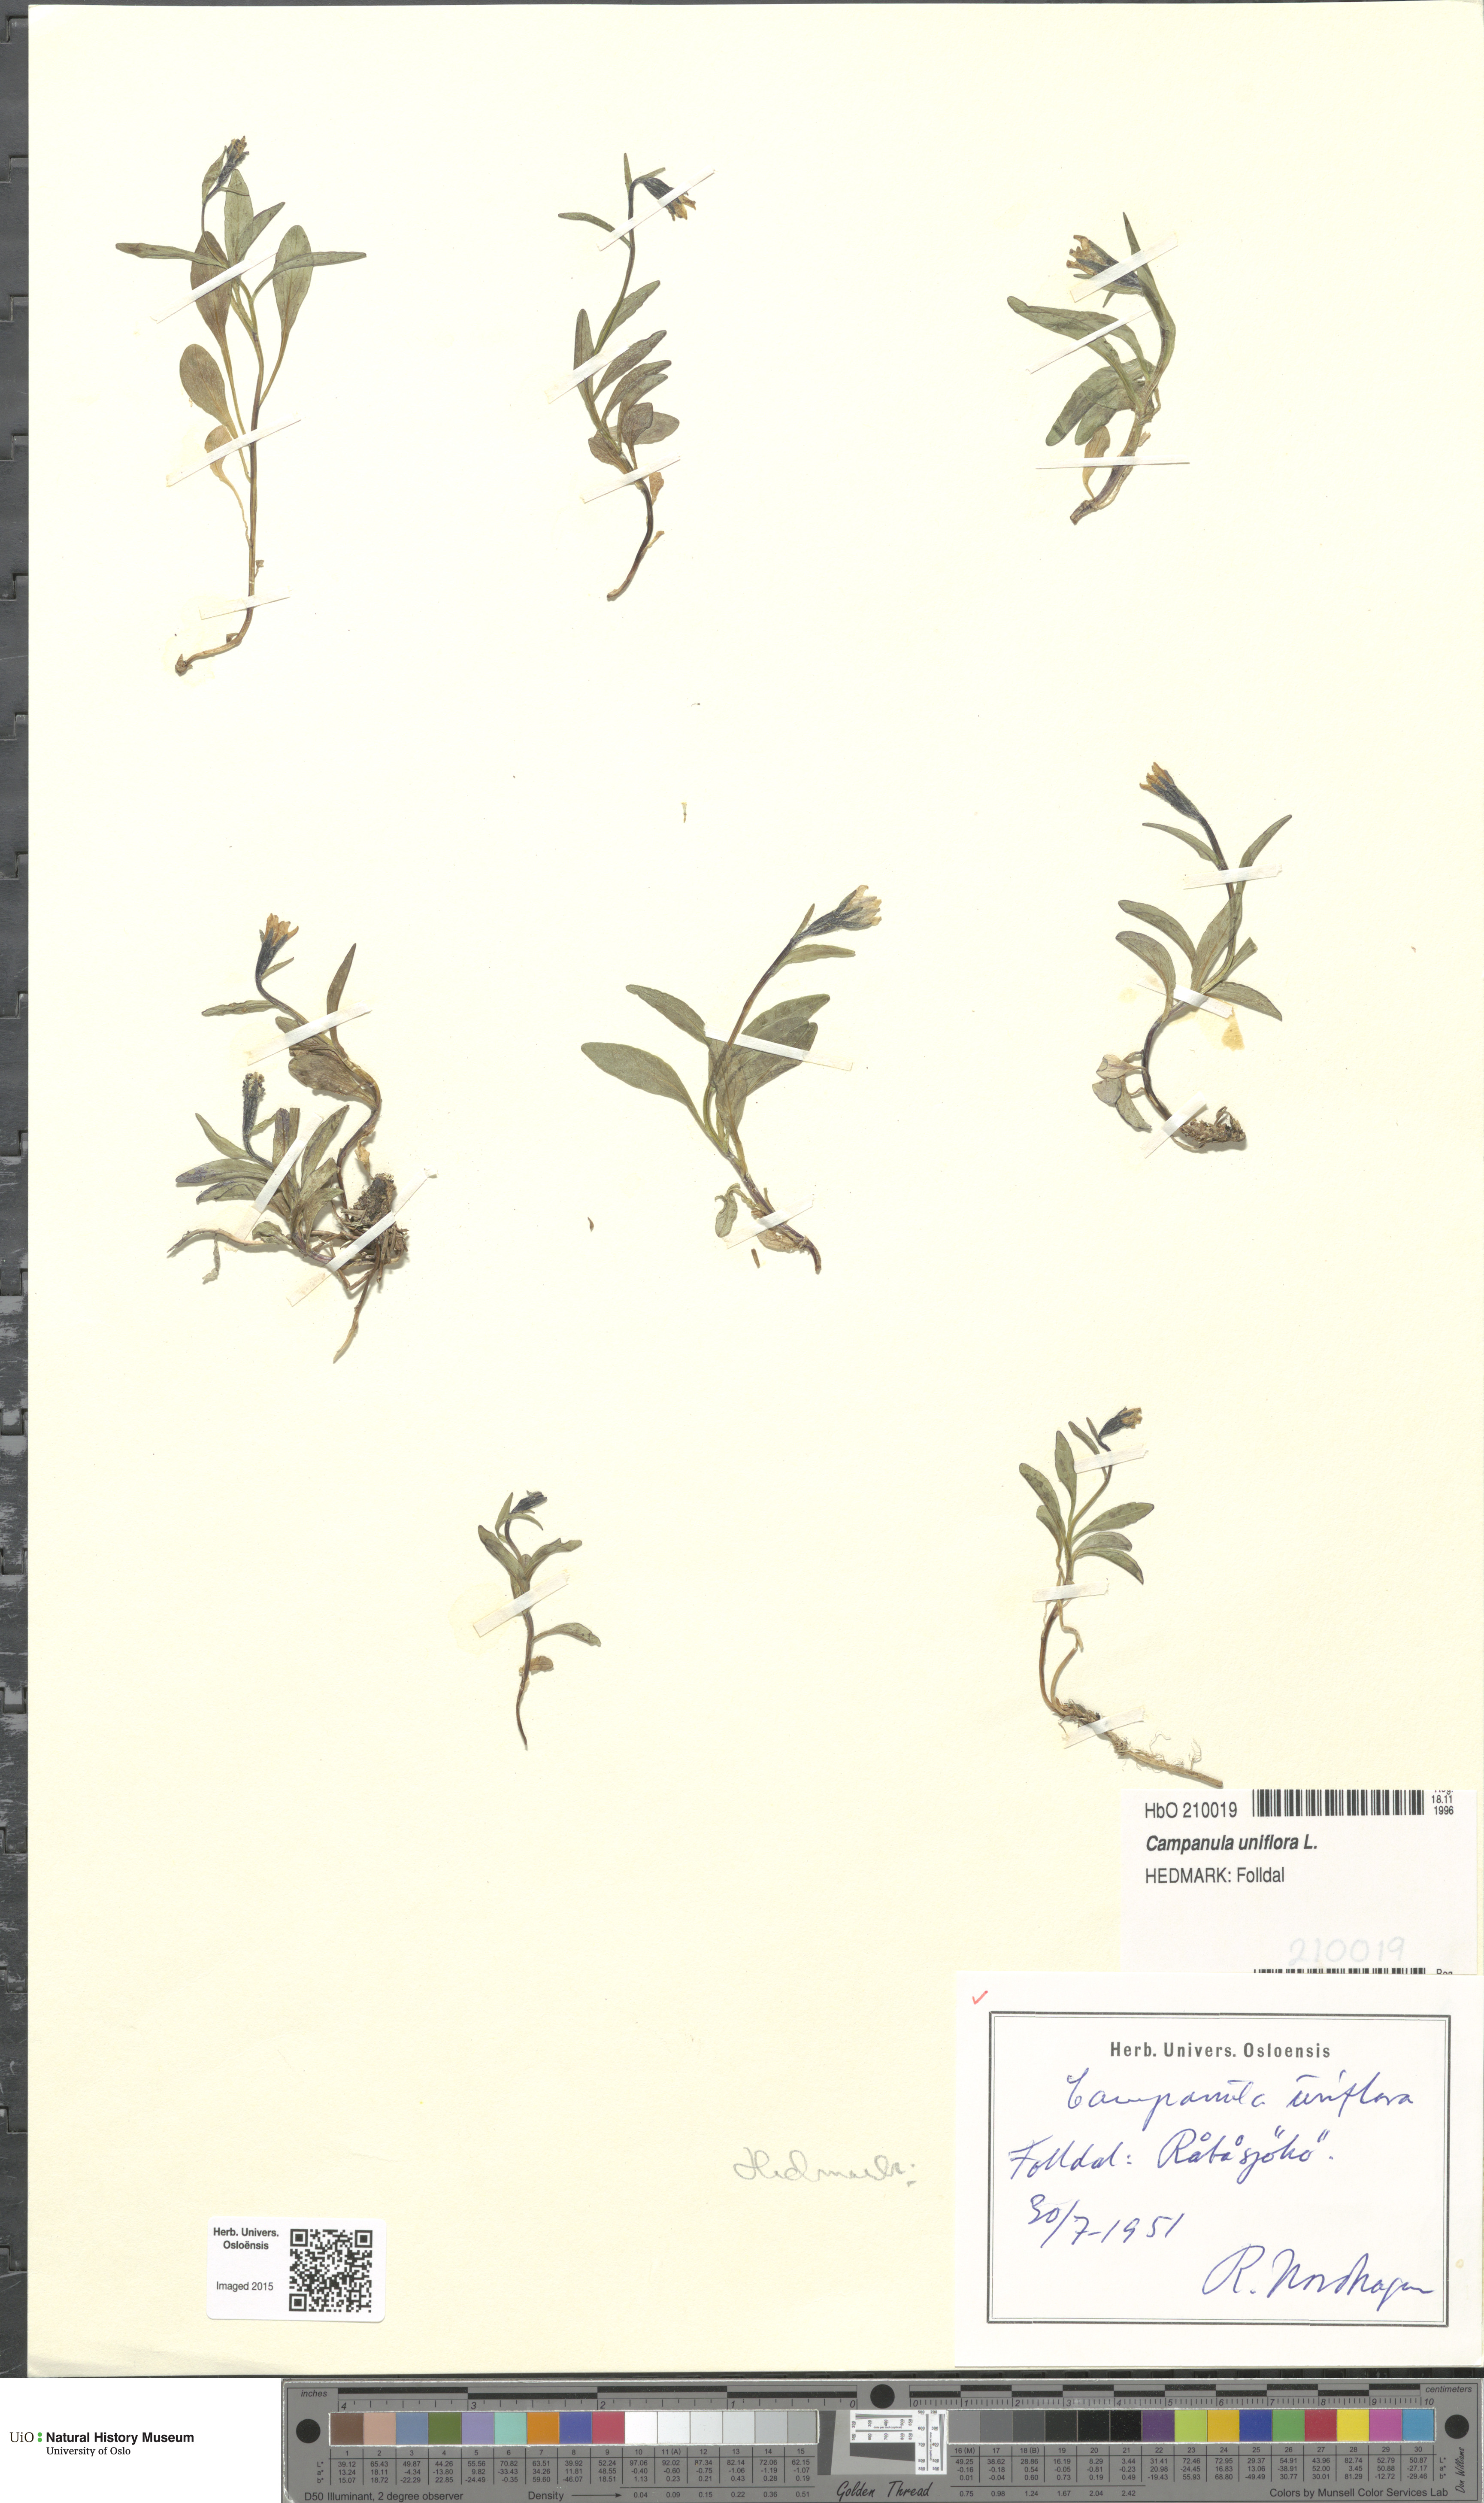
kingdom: Plantae
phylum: Tracheophyta
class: Magnoliopsida
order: Asterales
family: Campanulaceae
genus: Melanocalyx
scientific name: Melanocalyx uniflora
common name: Alpine harebell
